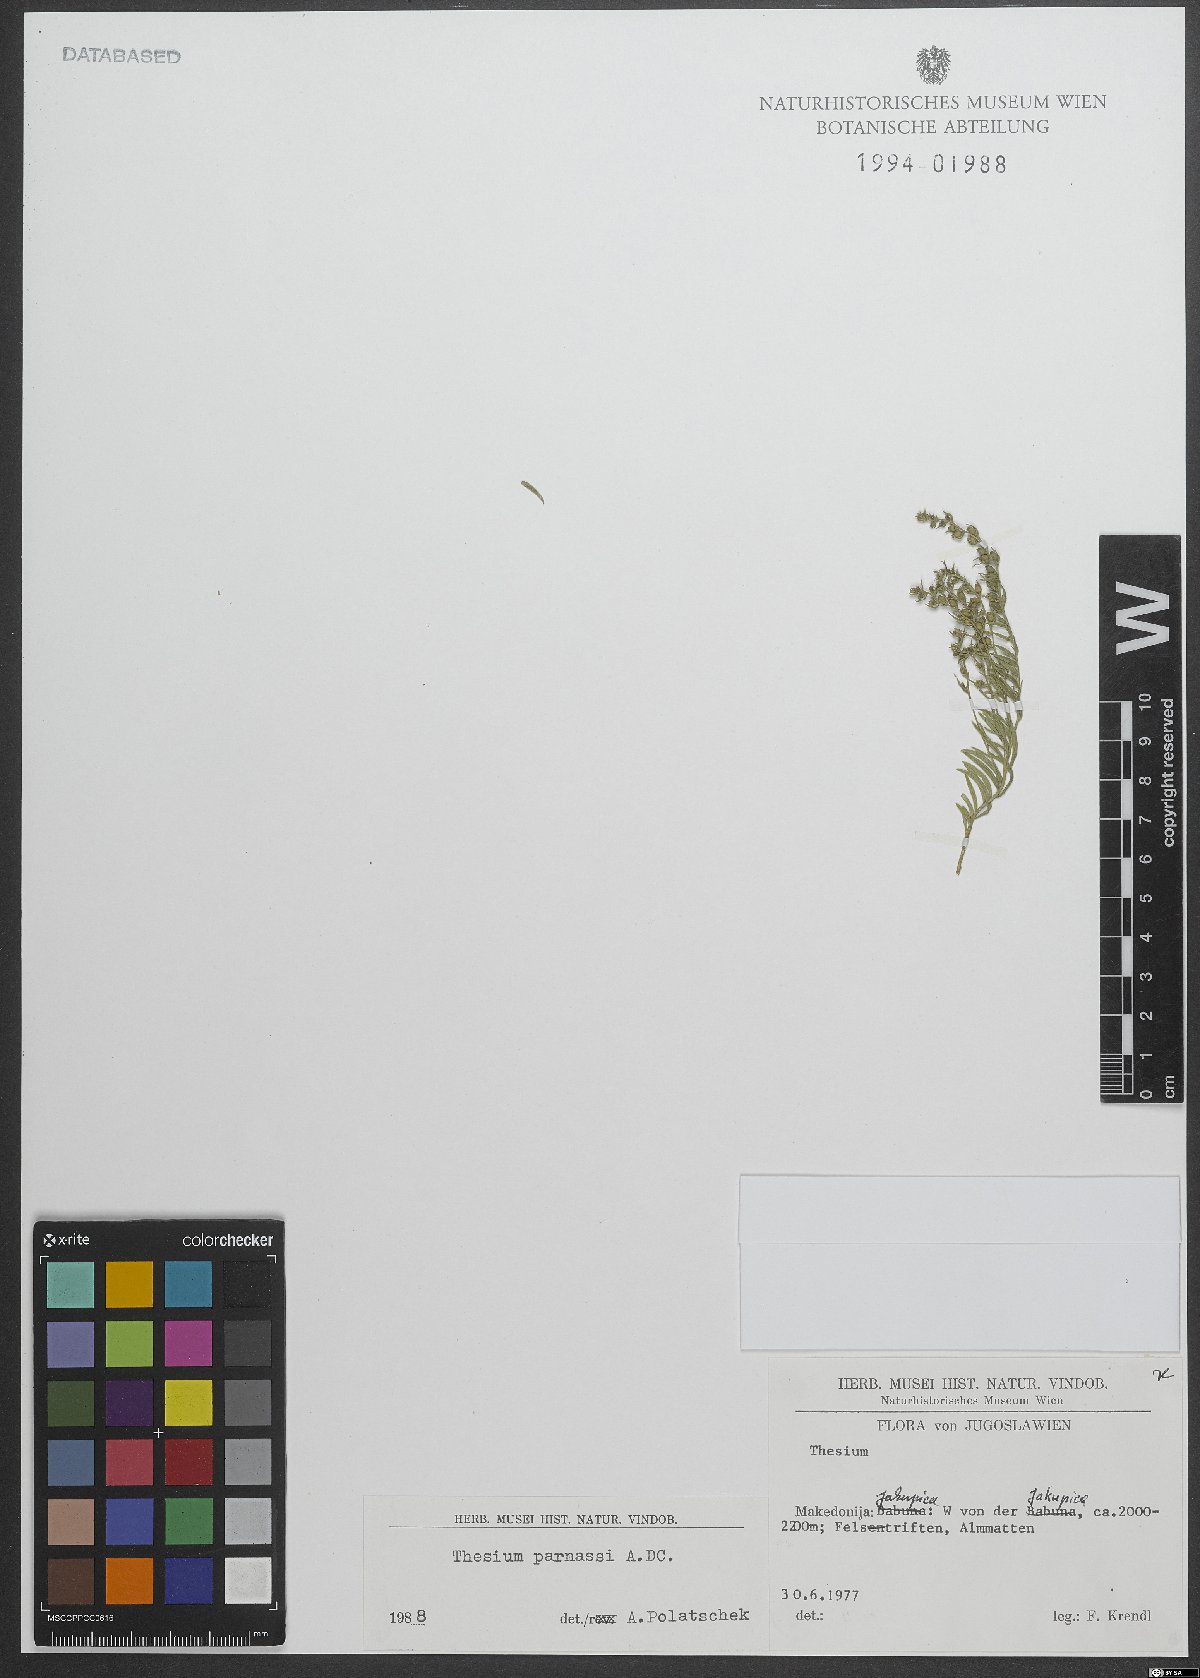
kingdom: Plantae
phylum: Tracheophyta
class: Magnoliopsida
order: Santalales
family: Thesiaceae
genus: Thesium
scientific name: Thesium parnassi
